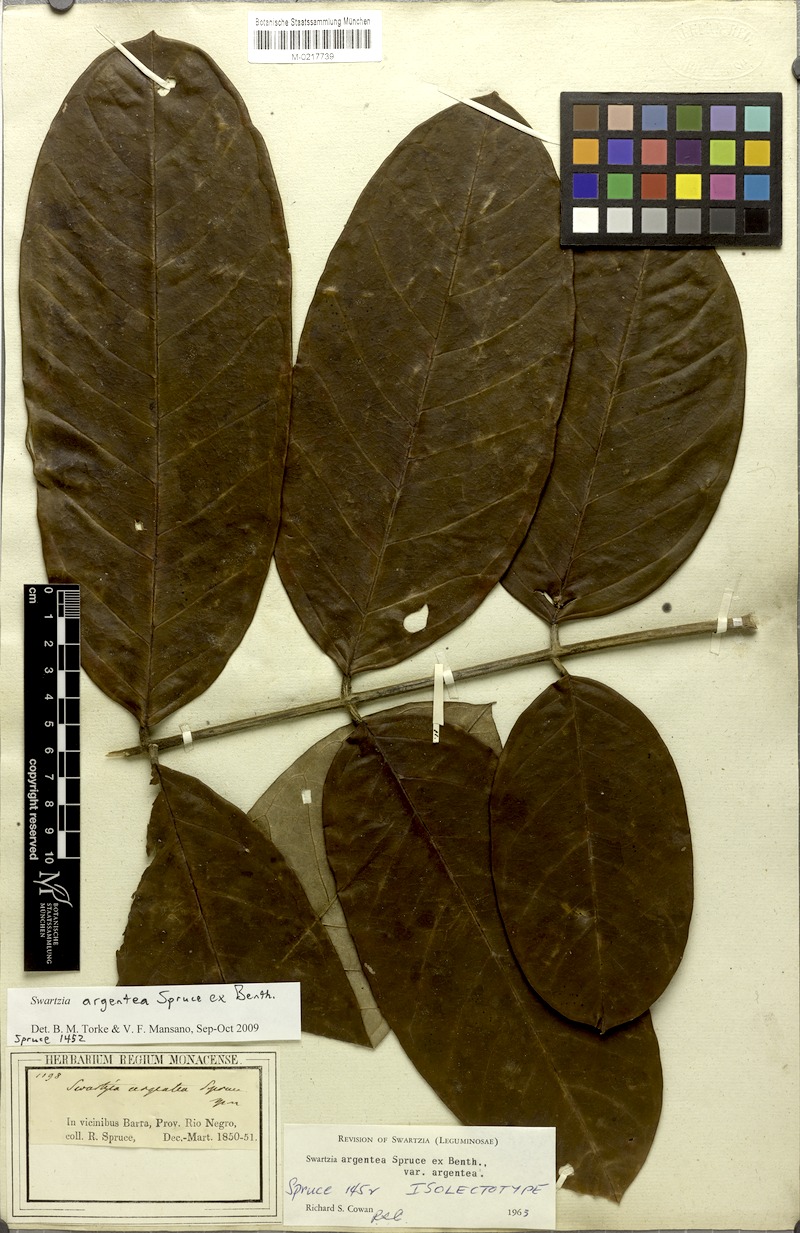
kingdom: Plantae
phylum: Tracheophyta
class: Magnoliopsida
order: Fabales
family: Fabaceae
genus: Swartzia
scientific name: Swartzia argentea
